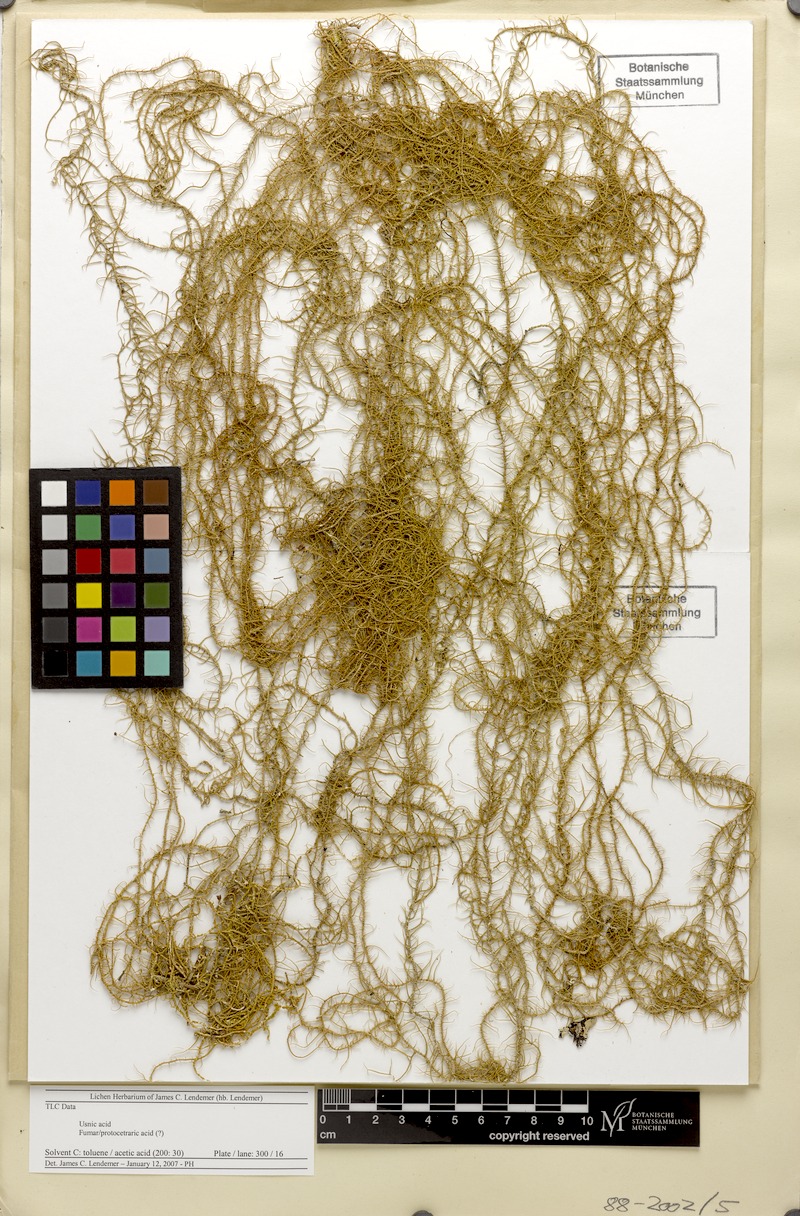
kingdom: Fungi
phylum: Ascomycota
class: Lecanoromycetes
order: Lecanorales
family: Parmeliaceae
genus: Usnea
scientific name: Usnea goniodes
